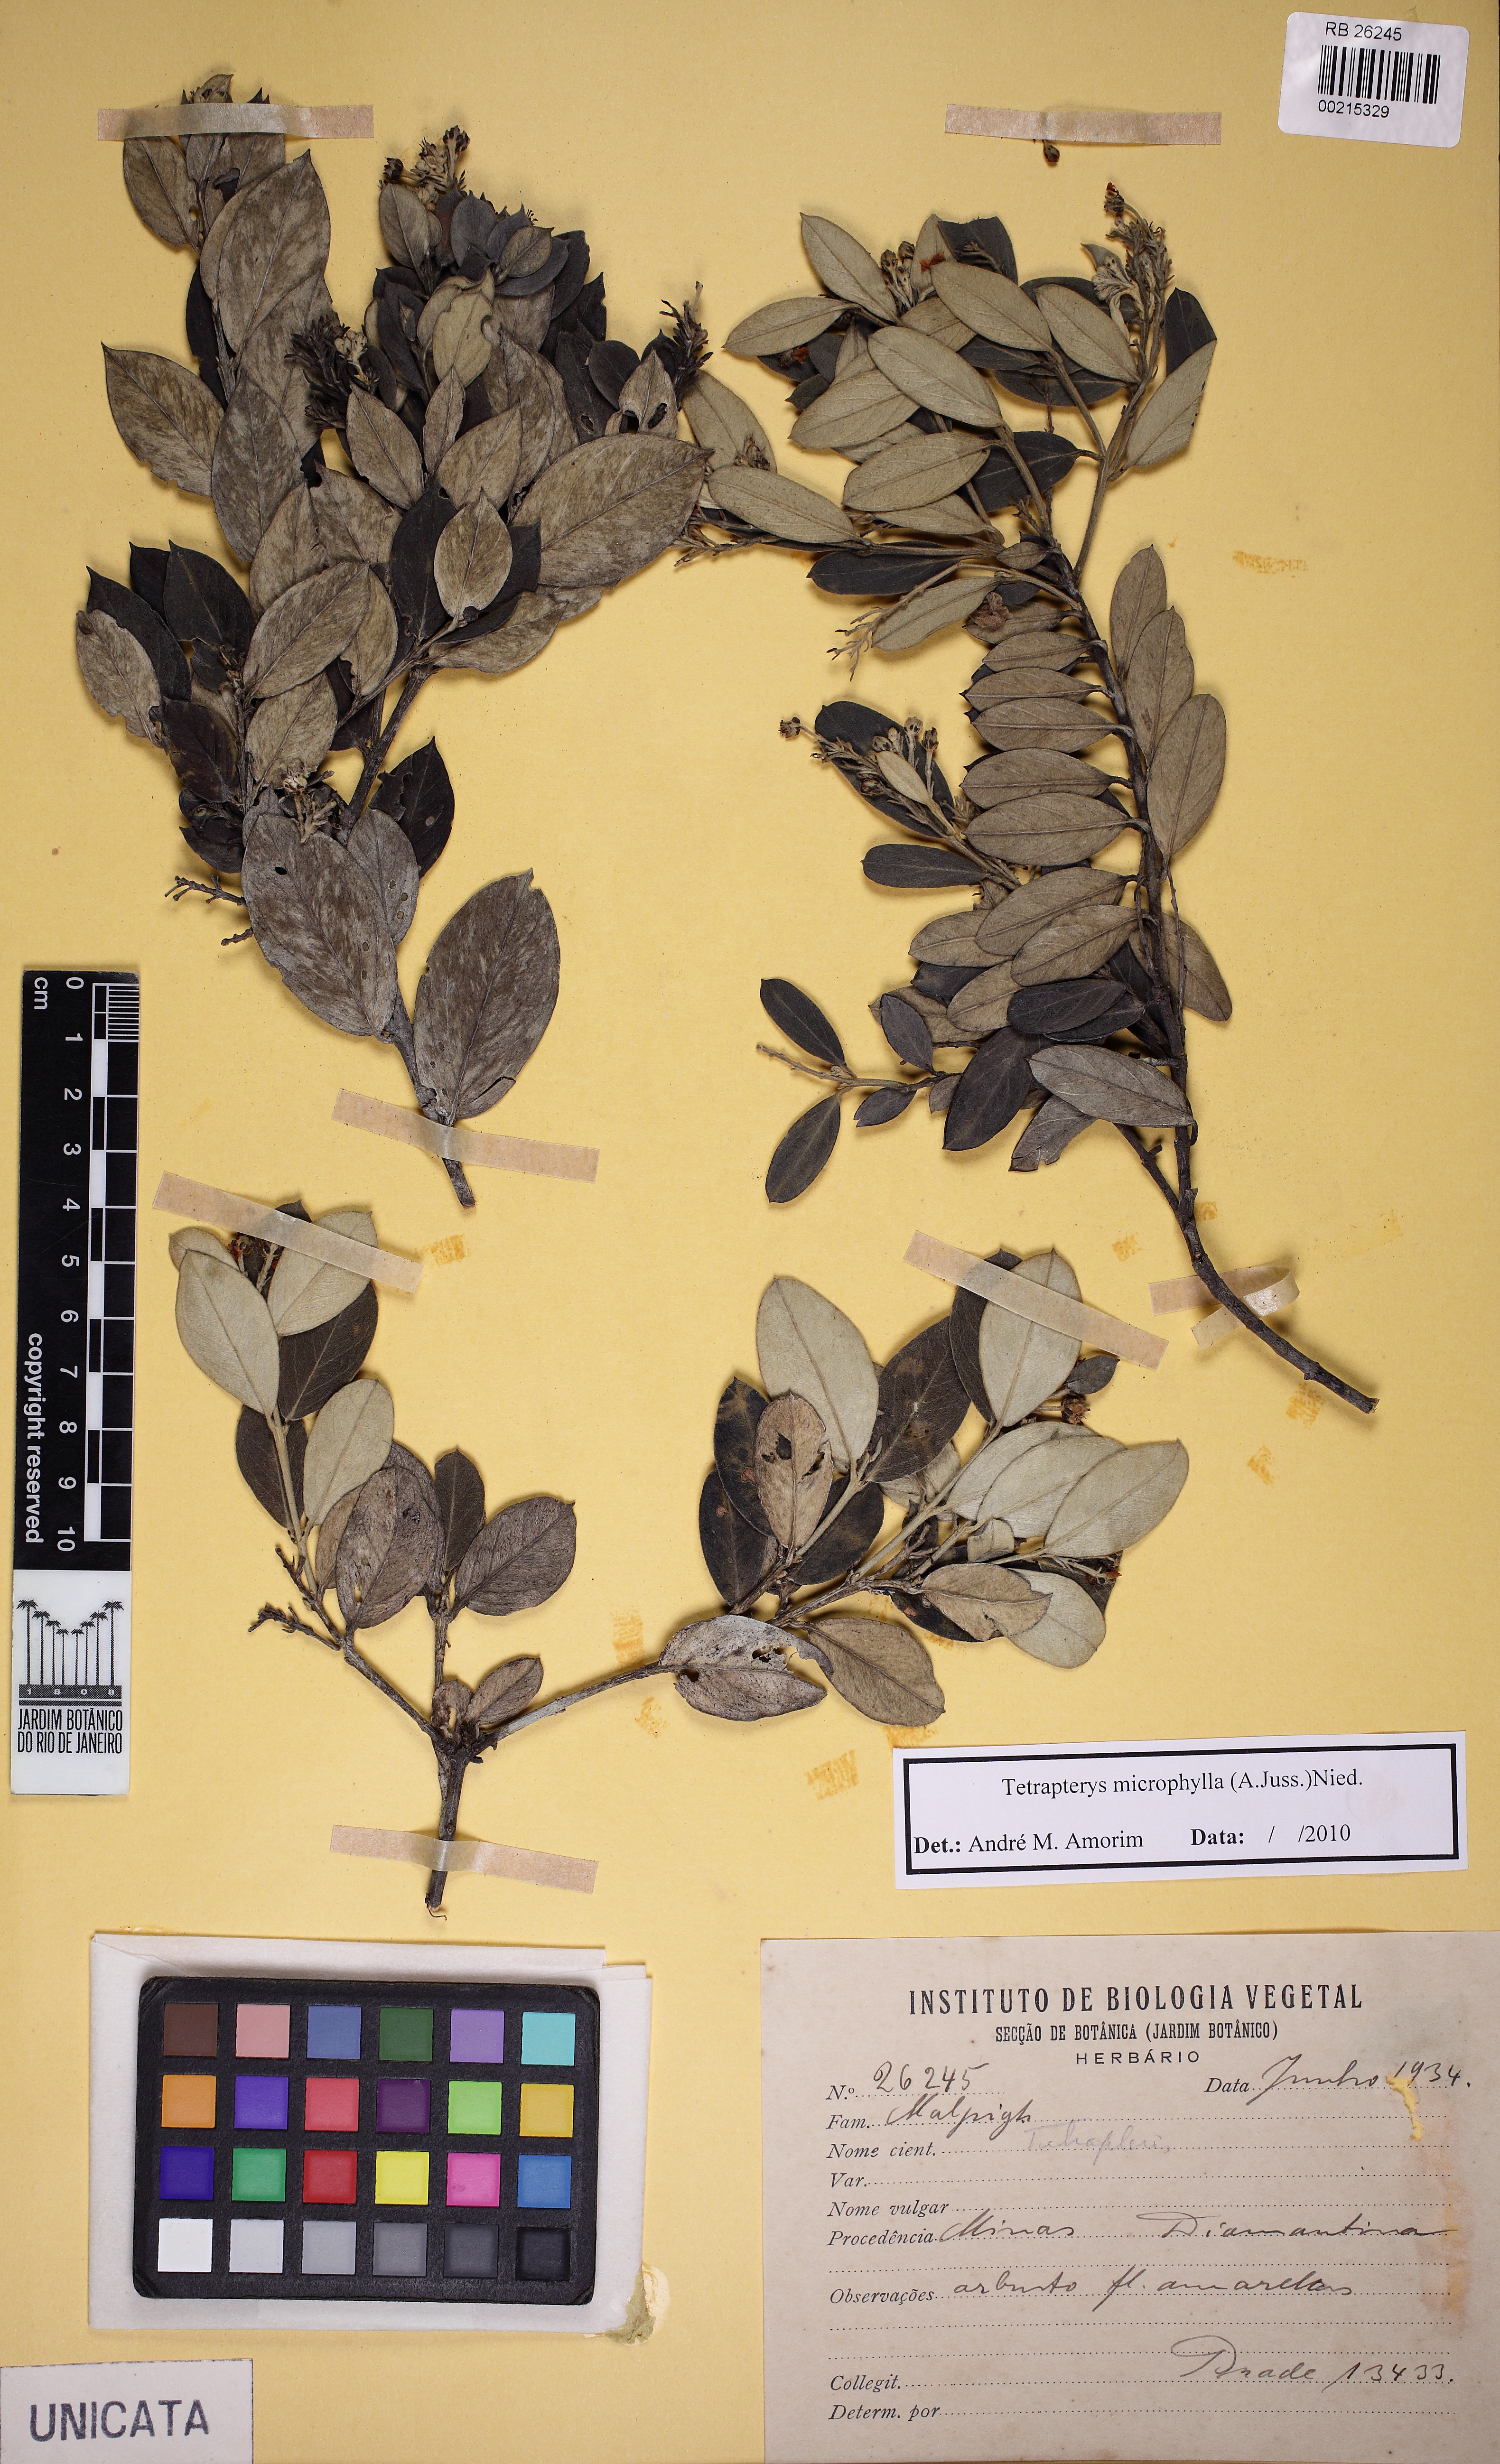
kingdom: Plantae
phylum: Tracheophyta
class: Magnoliopsida
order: Malpighiales
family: Malpighiaceae
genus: Glicophyllum
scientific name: Glicophyllum microphyllum
